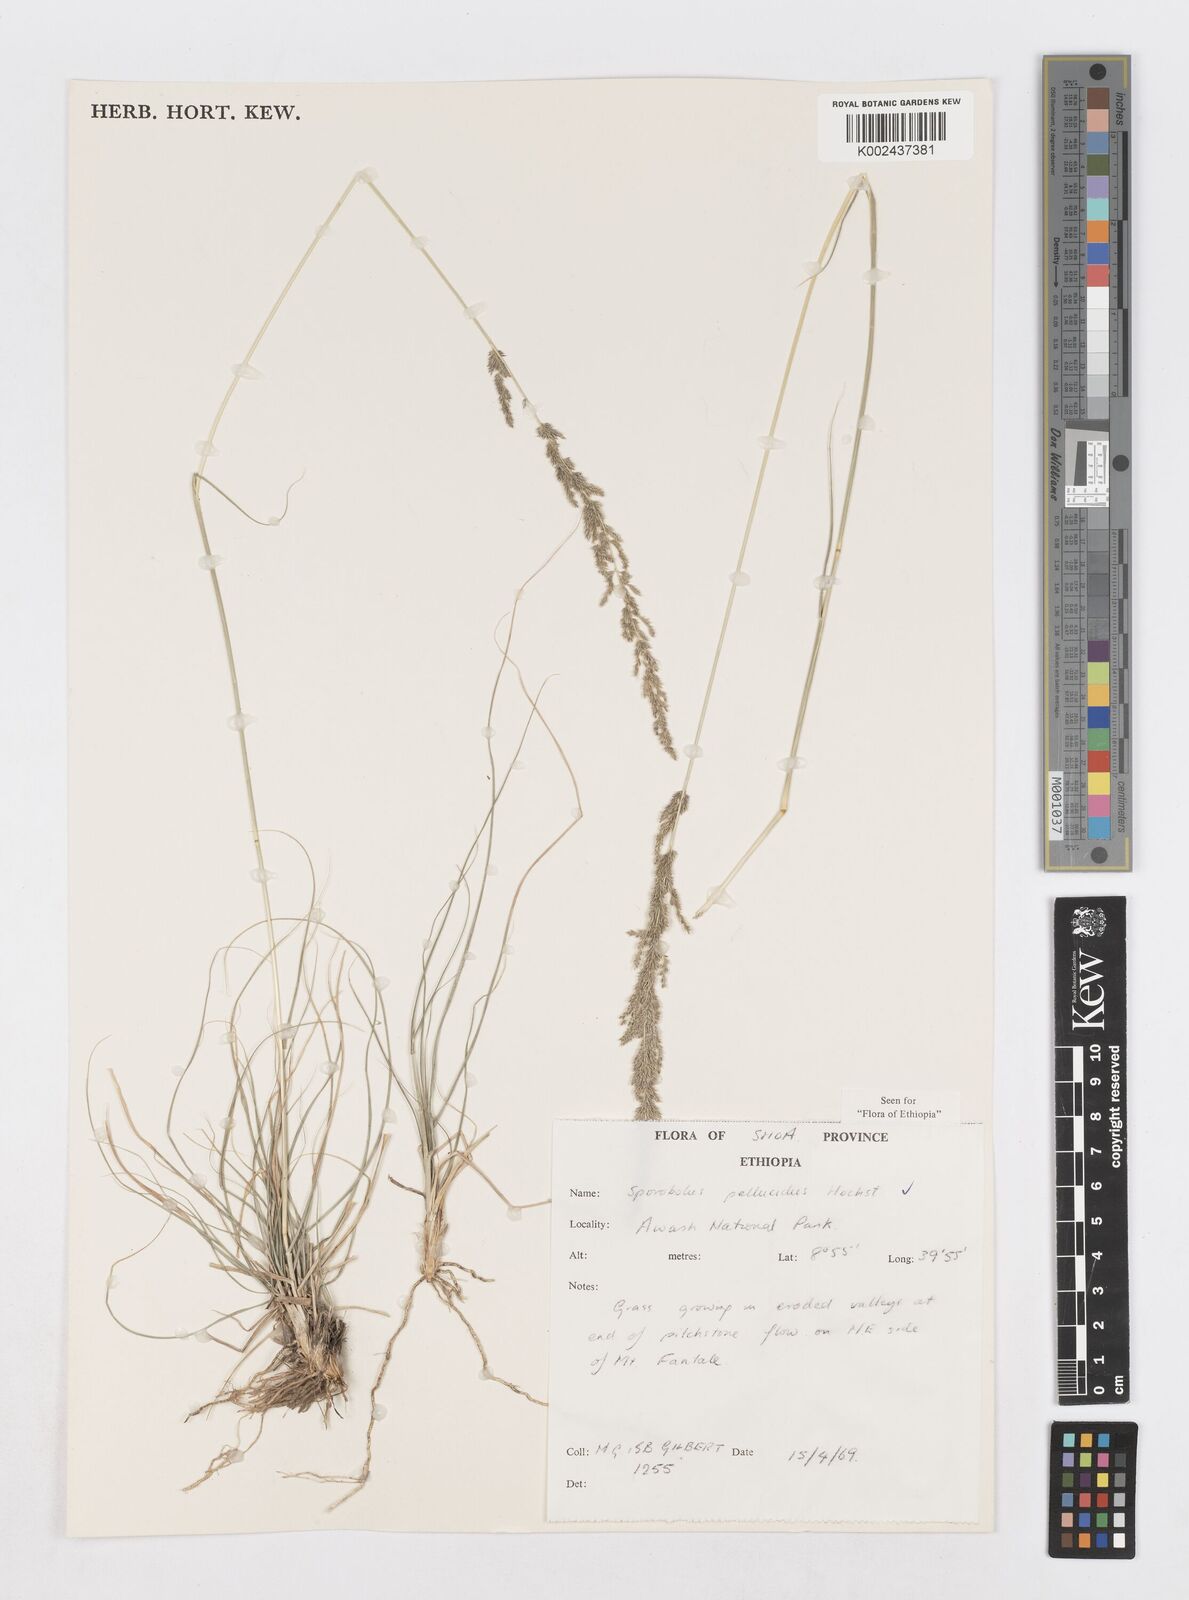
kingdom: Plantae
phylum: Tracheophyta
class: Liliopsida
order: Poales
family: Poaceae
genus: Sporobolus
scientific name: Sporobolus pellucidus
